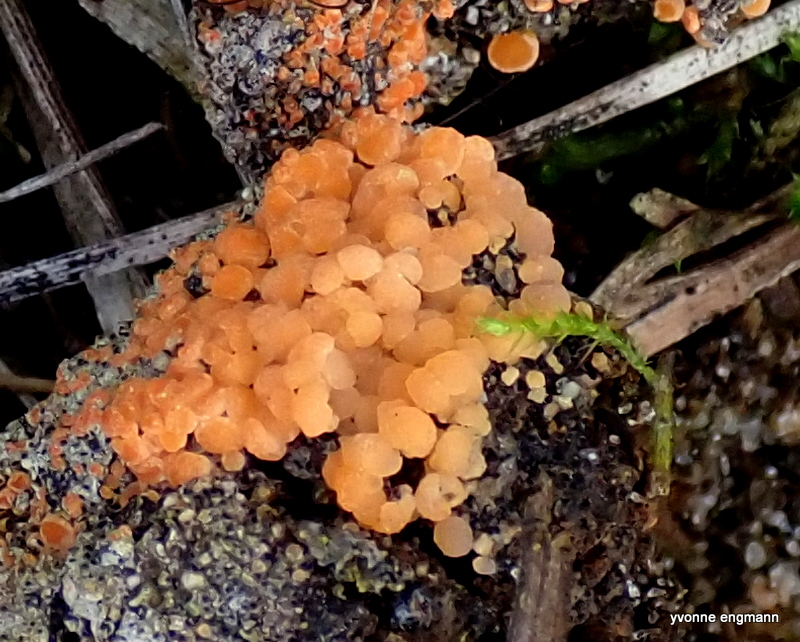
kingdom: Fungi
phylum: Ascomycota
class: Pezizomycetes
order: Pezizales
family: Pyronemataceae
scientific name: Pyronemataceae
